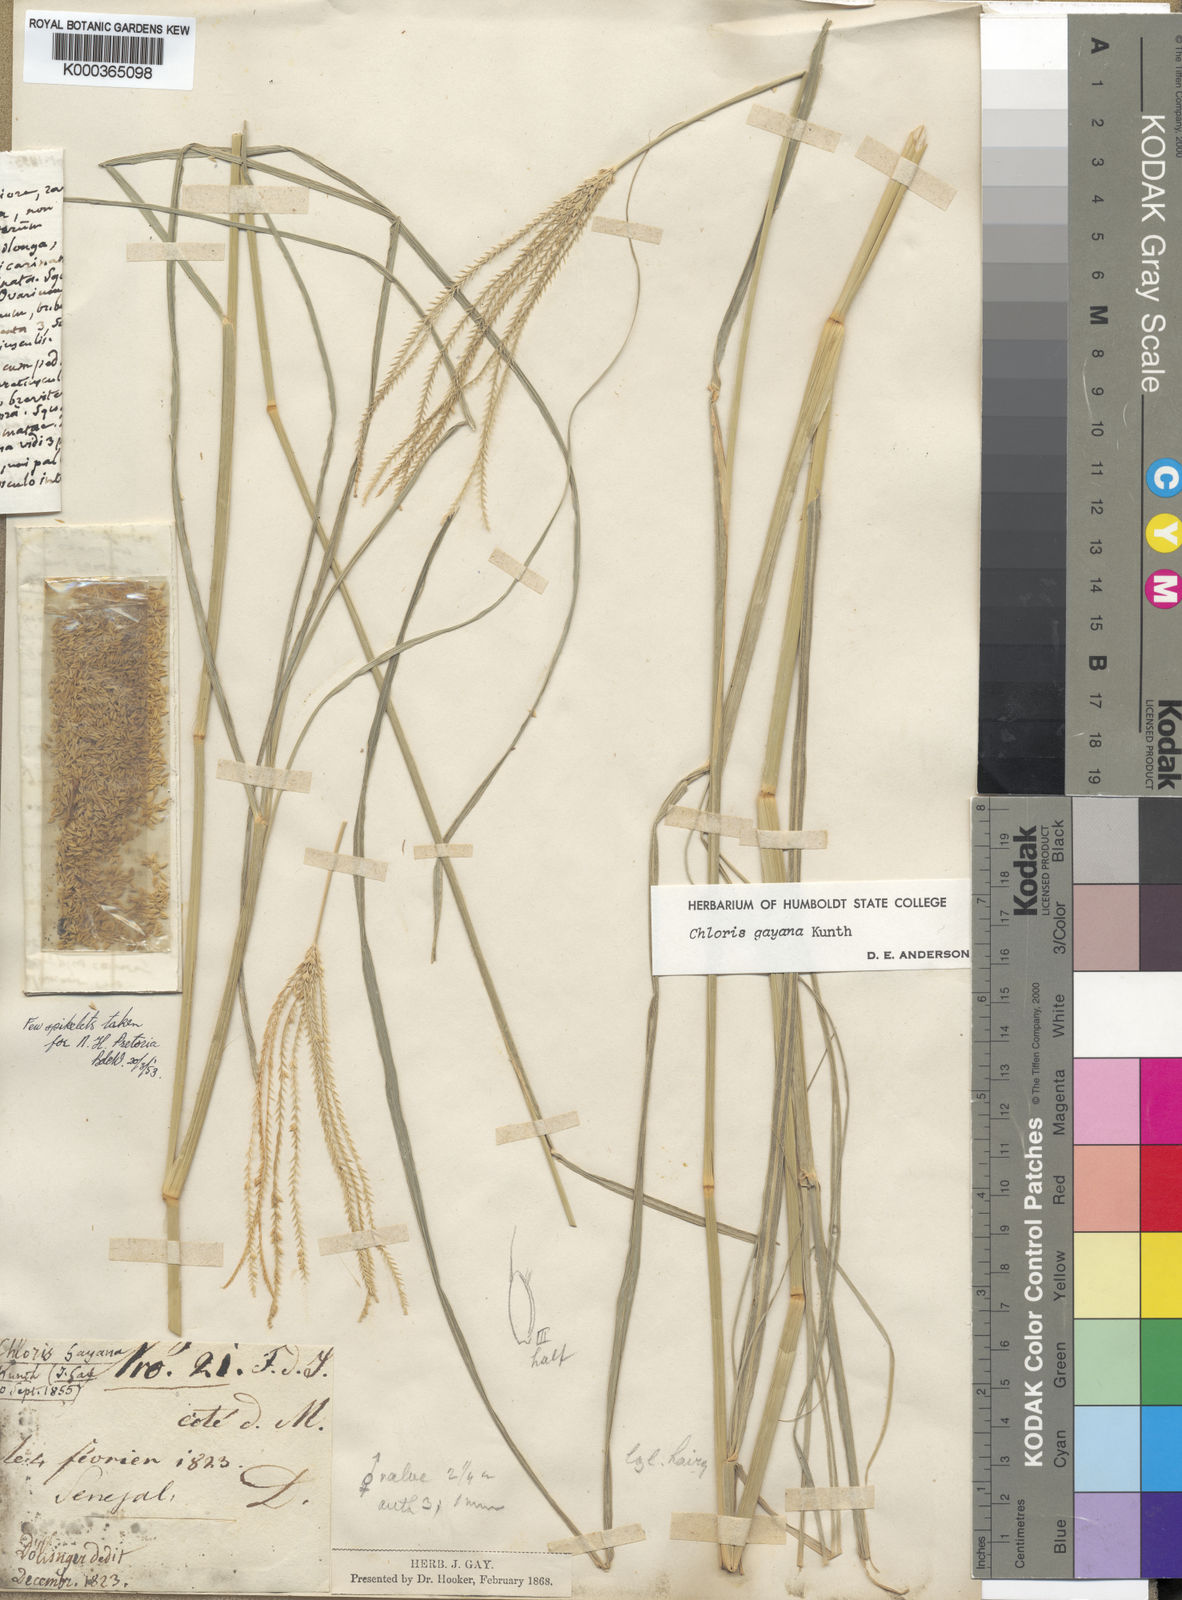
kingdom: Plantae
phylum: Tracheophyta
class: Liliopsida
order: Poales
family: Poaceae
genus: Chloris
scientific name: Chloris gayana
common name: Rhodes grass
